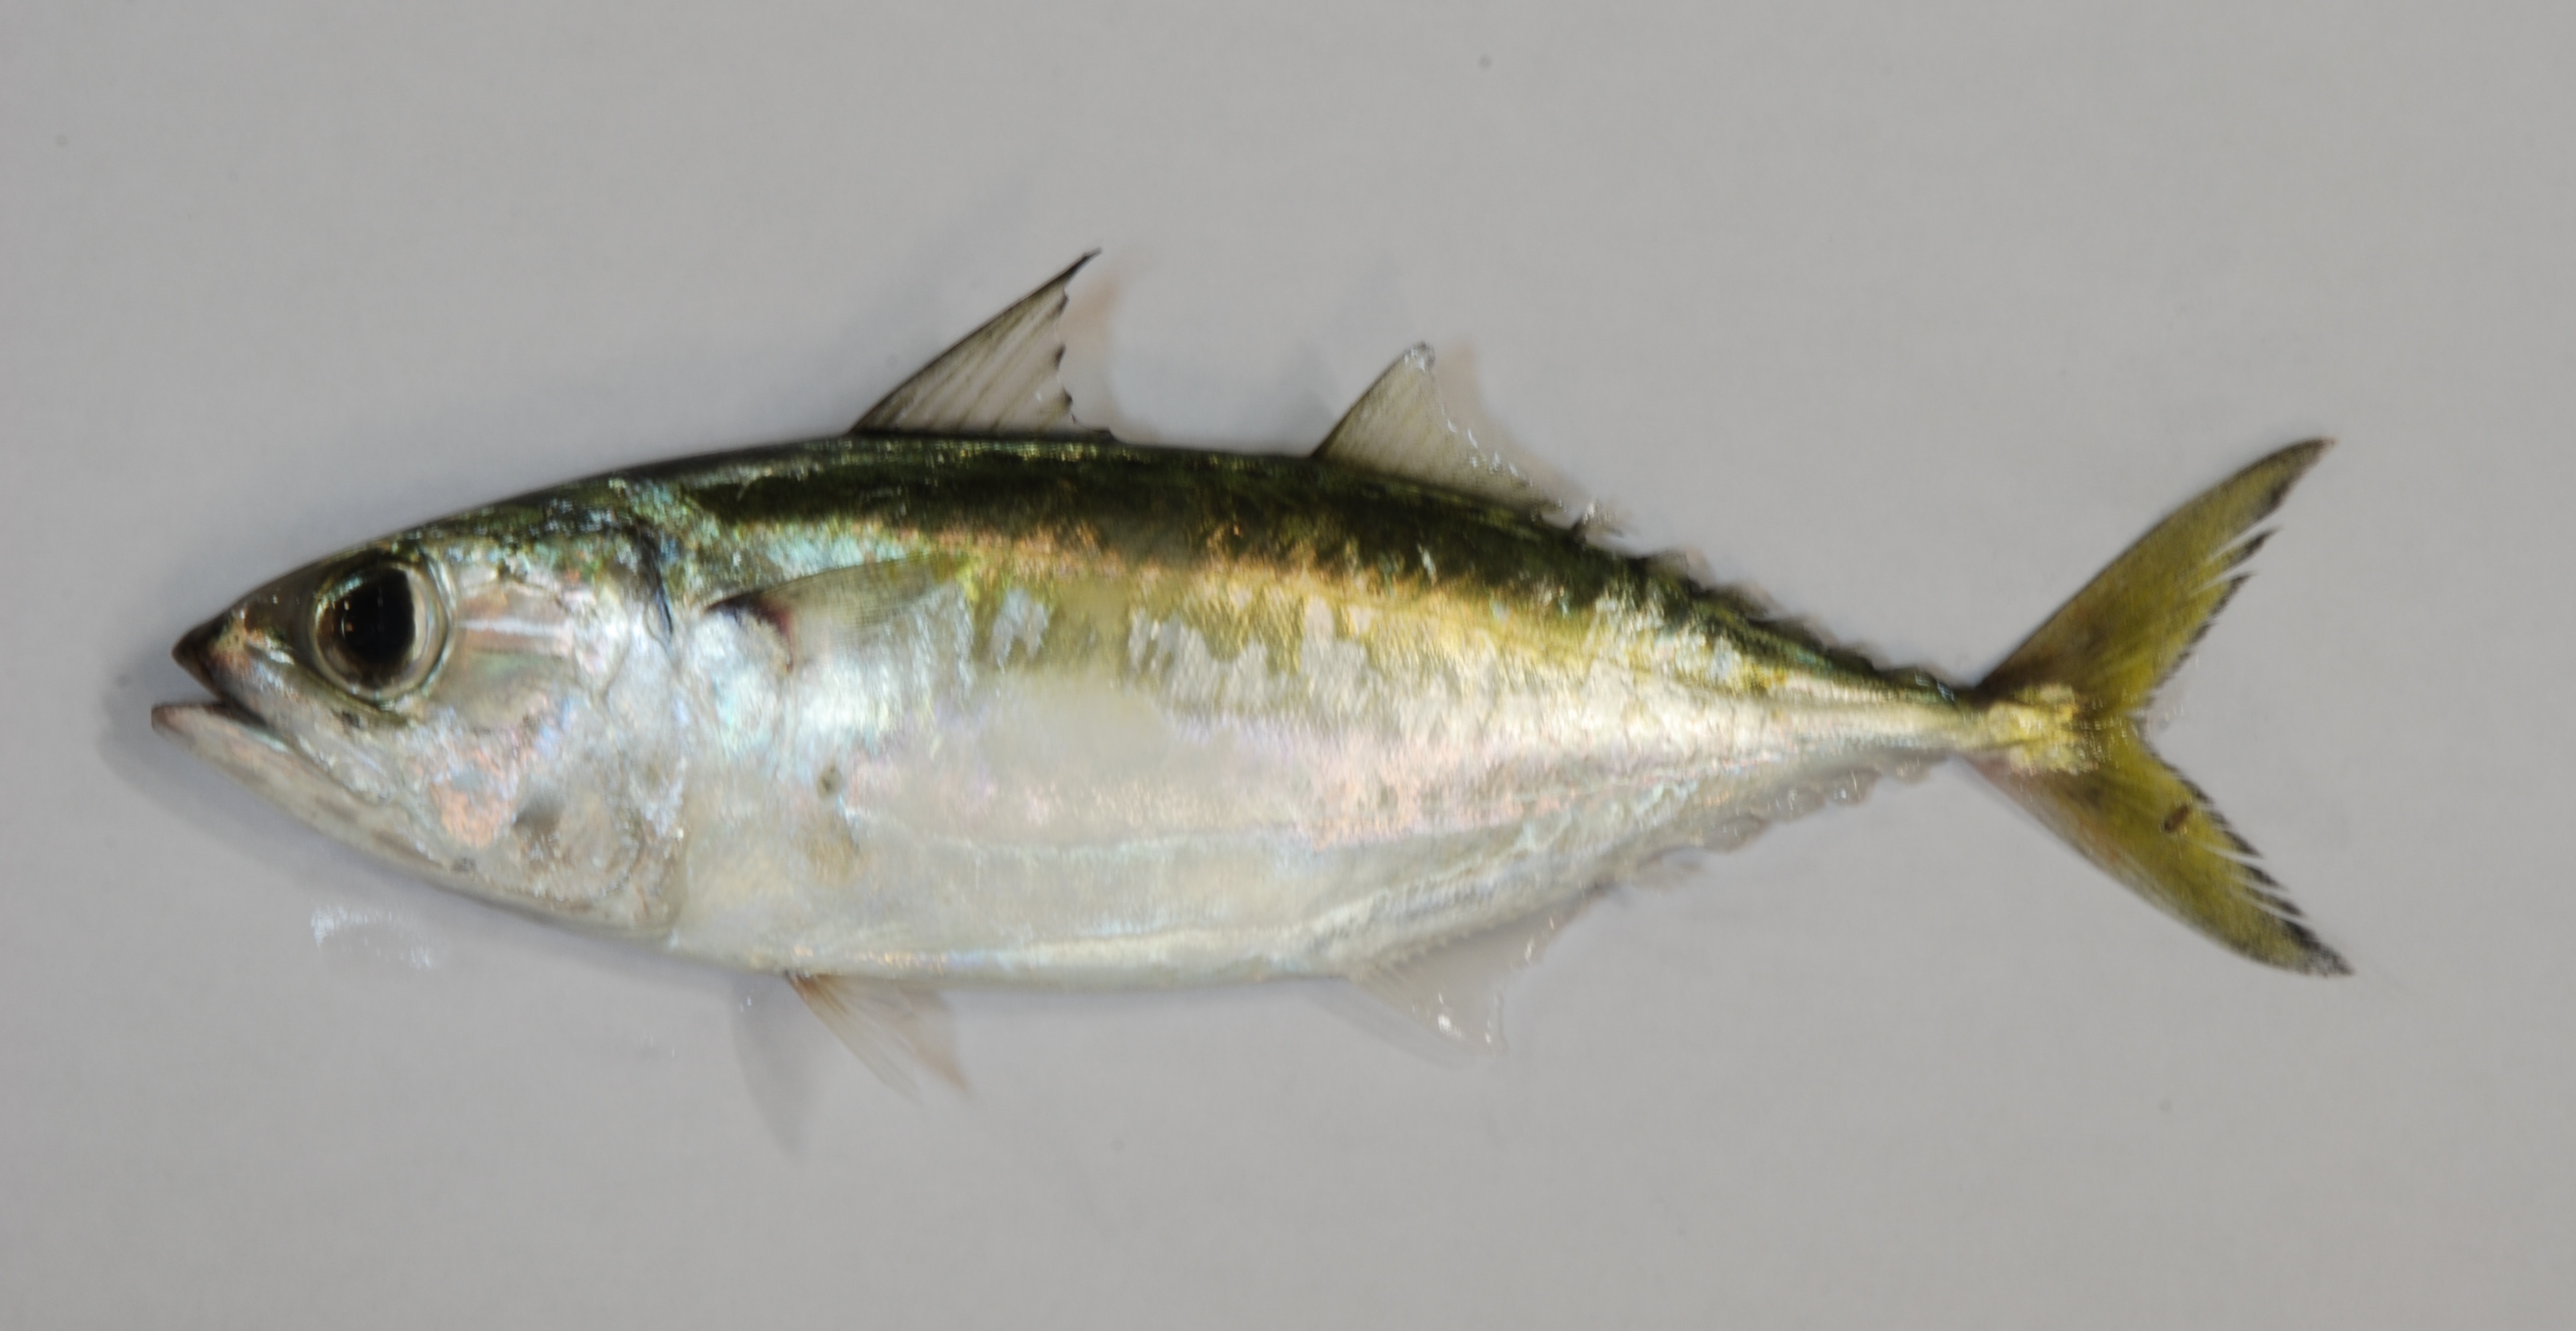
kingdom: Animalia
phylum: Chordata
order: Perciformes
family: Scombridae
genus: Rastrelliger
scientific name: Rastrelliger kanagurta
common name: Indian mackerel
